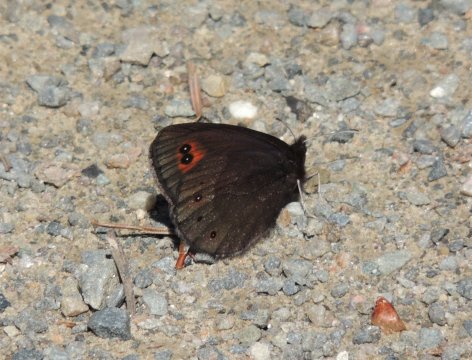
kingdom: Animalia
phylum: Arthropoda
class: Insecta
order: Lepidoptera
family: Nymphalidae
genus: Erebia
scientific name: Erebia epipsodea
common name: Common Alpine
